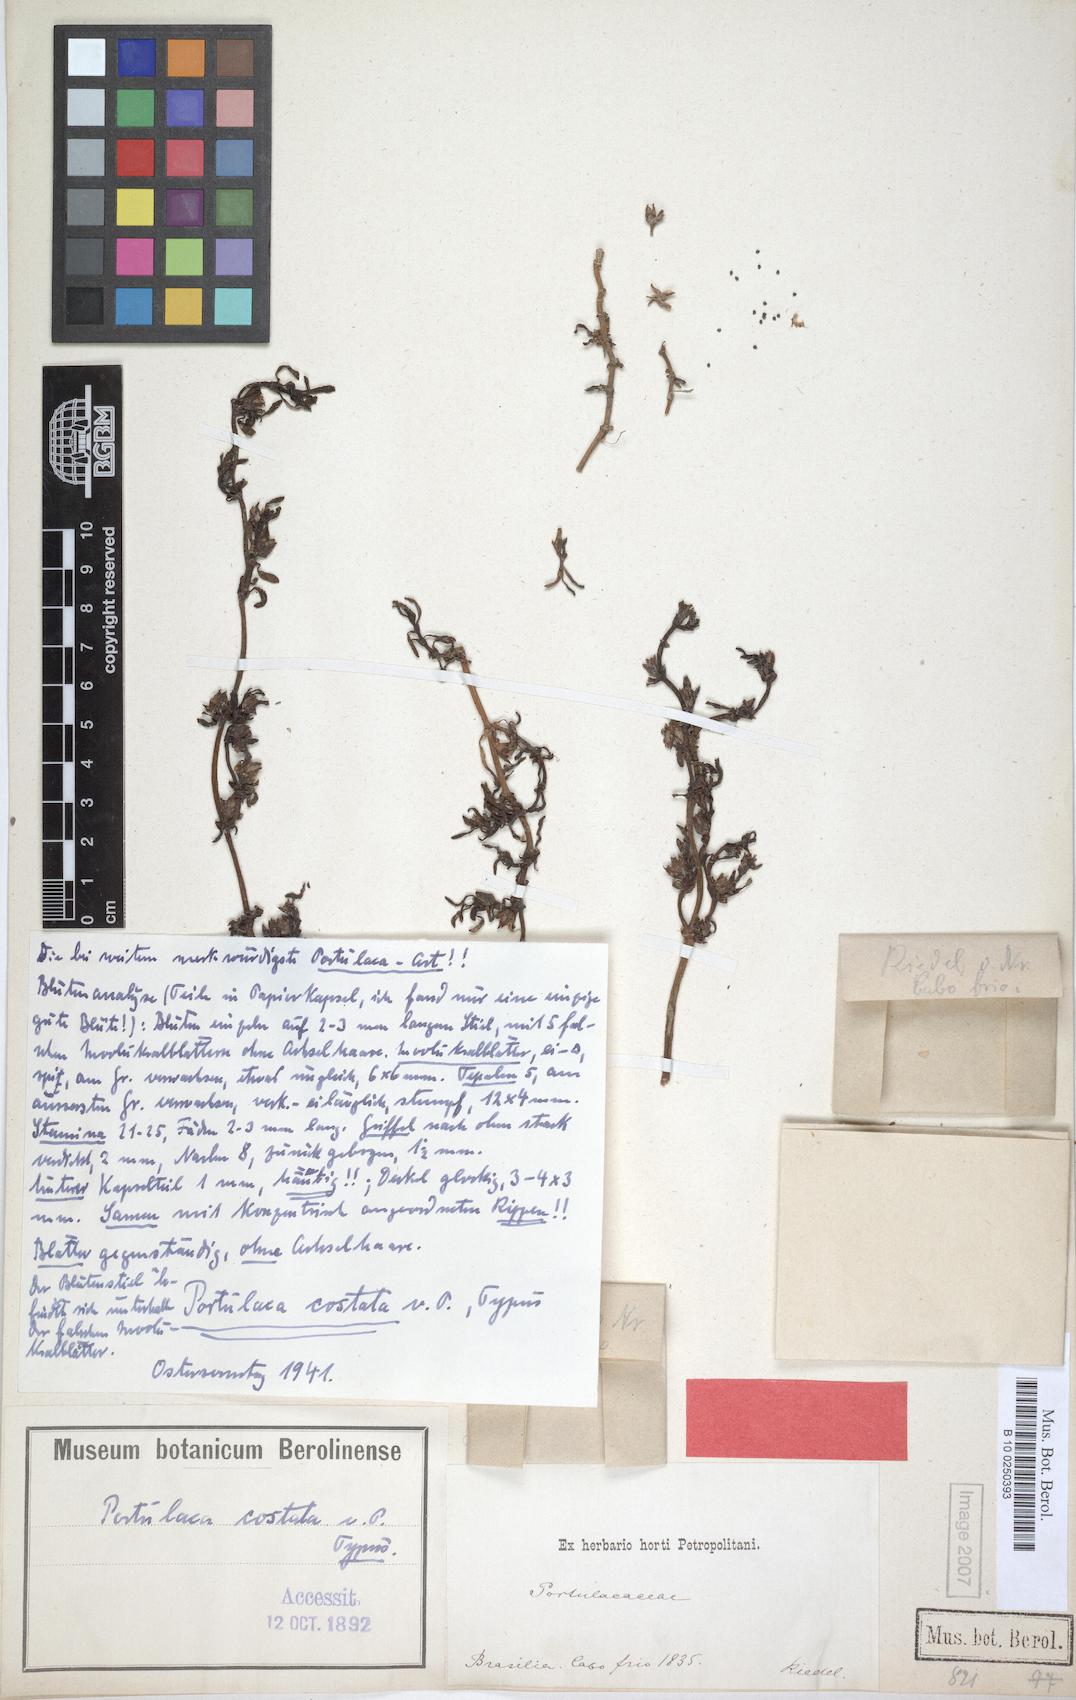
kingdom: Plantae
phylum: Tracheophyta
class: Magnoliopsida
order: Caryophyllales
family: Portulacaceae
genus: Portulaca
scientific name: Portulaca costata
